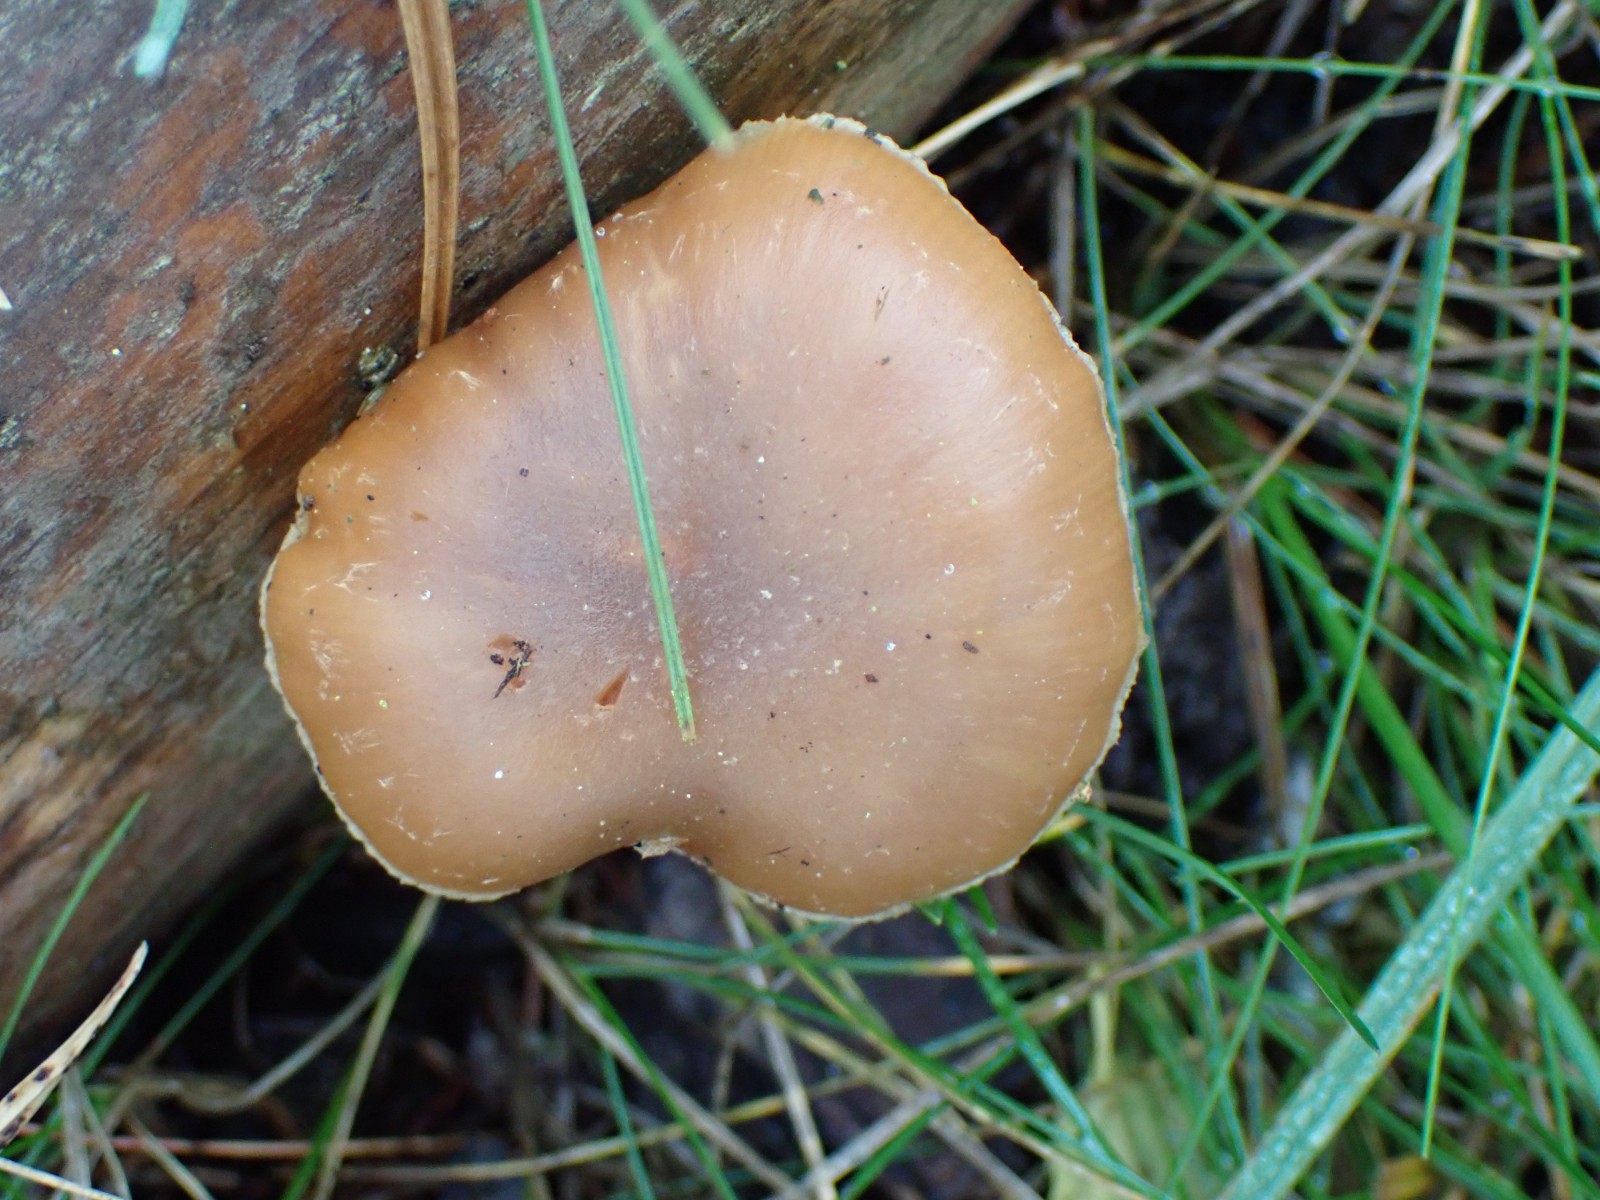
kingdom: Fungi
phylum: Basidiomycota
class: Agaricomycetes
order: Agaricales
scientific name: Agaricales
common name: champignonordenen
